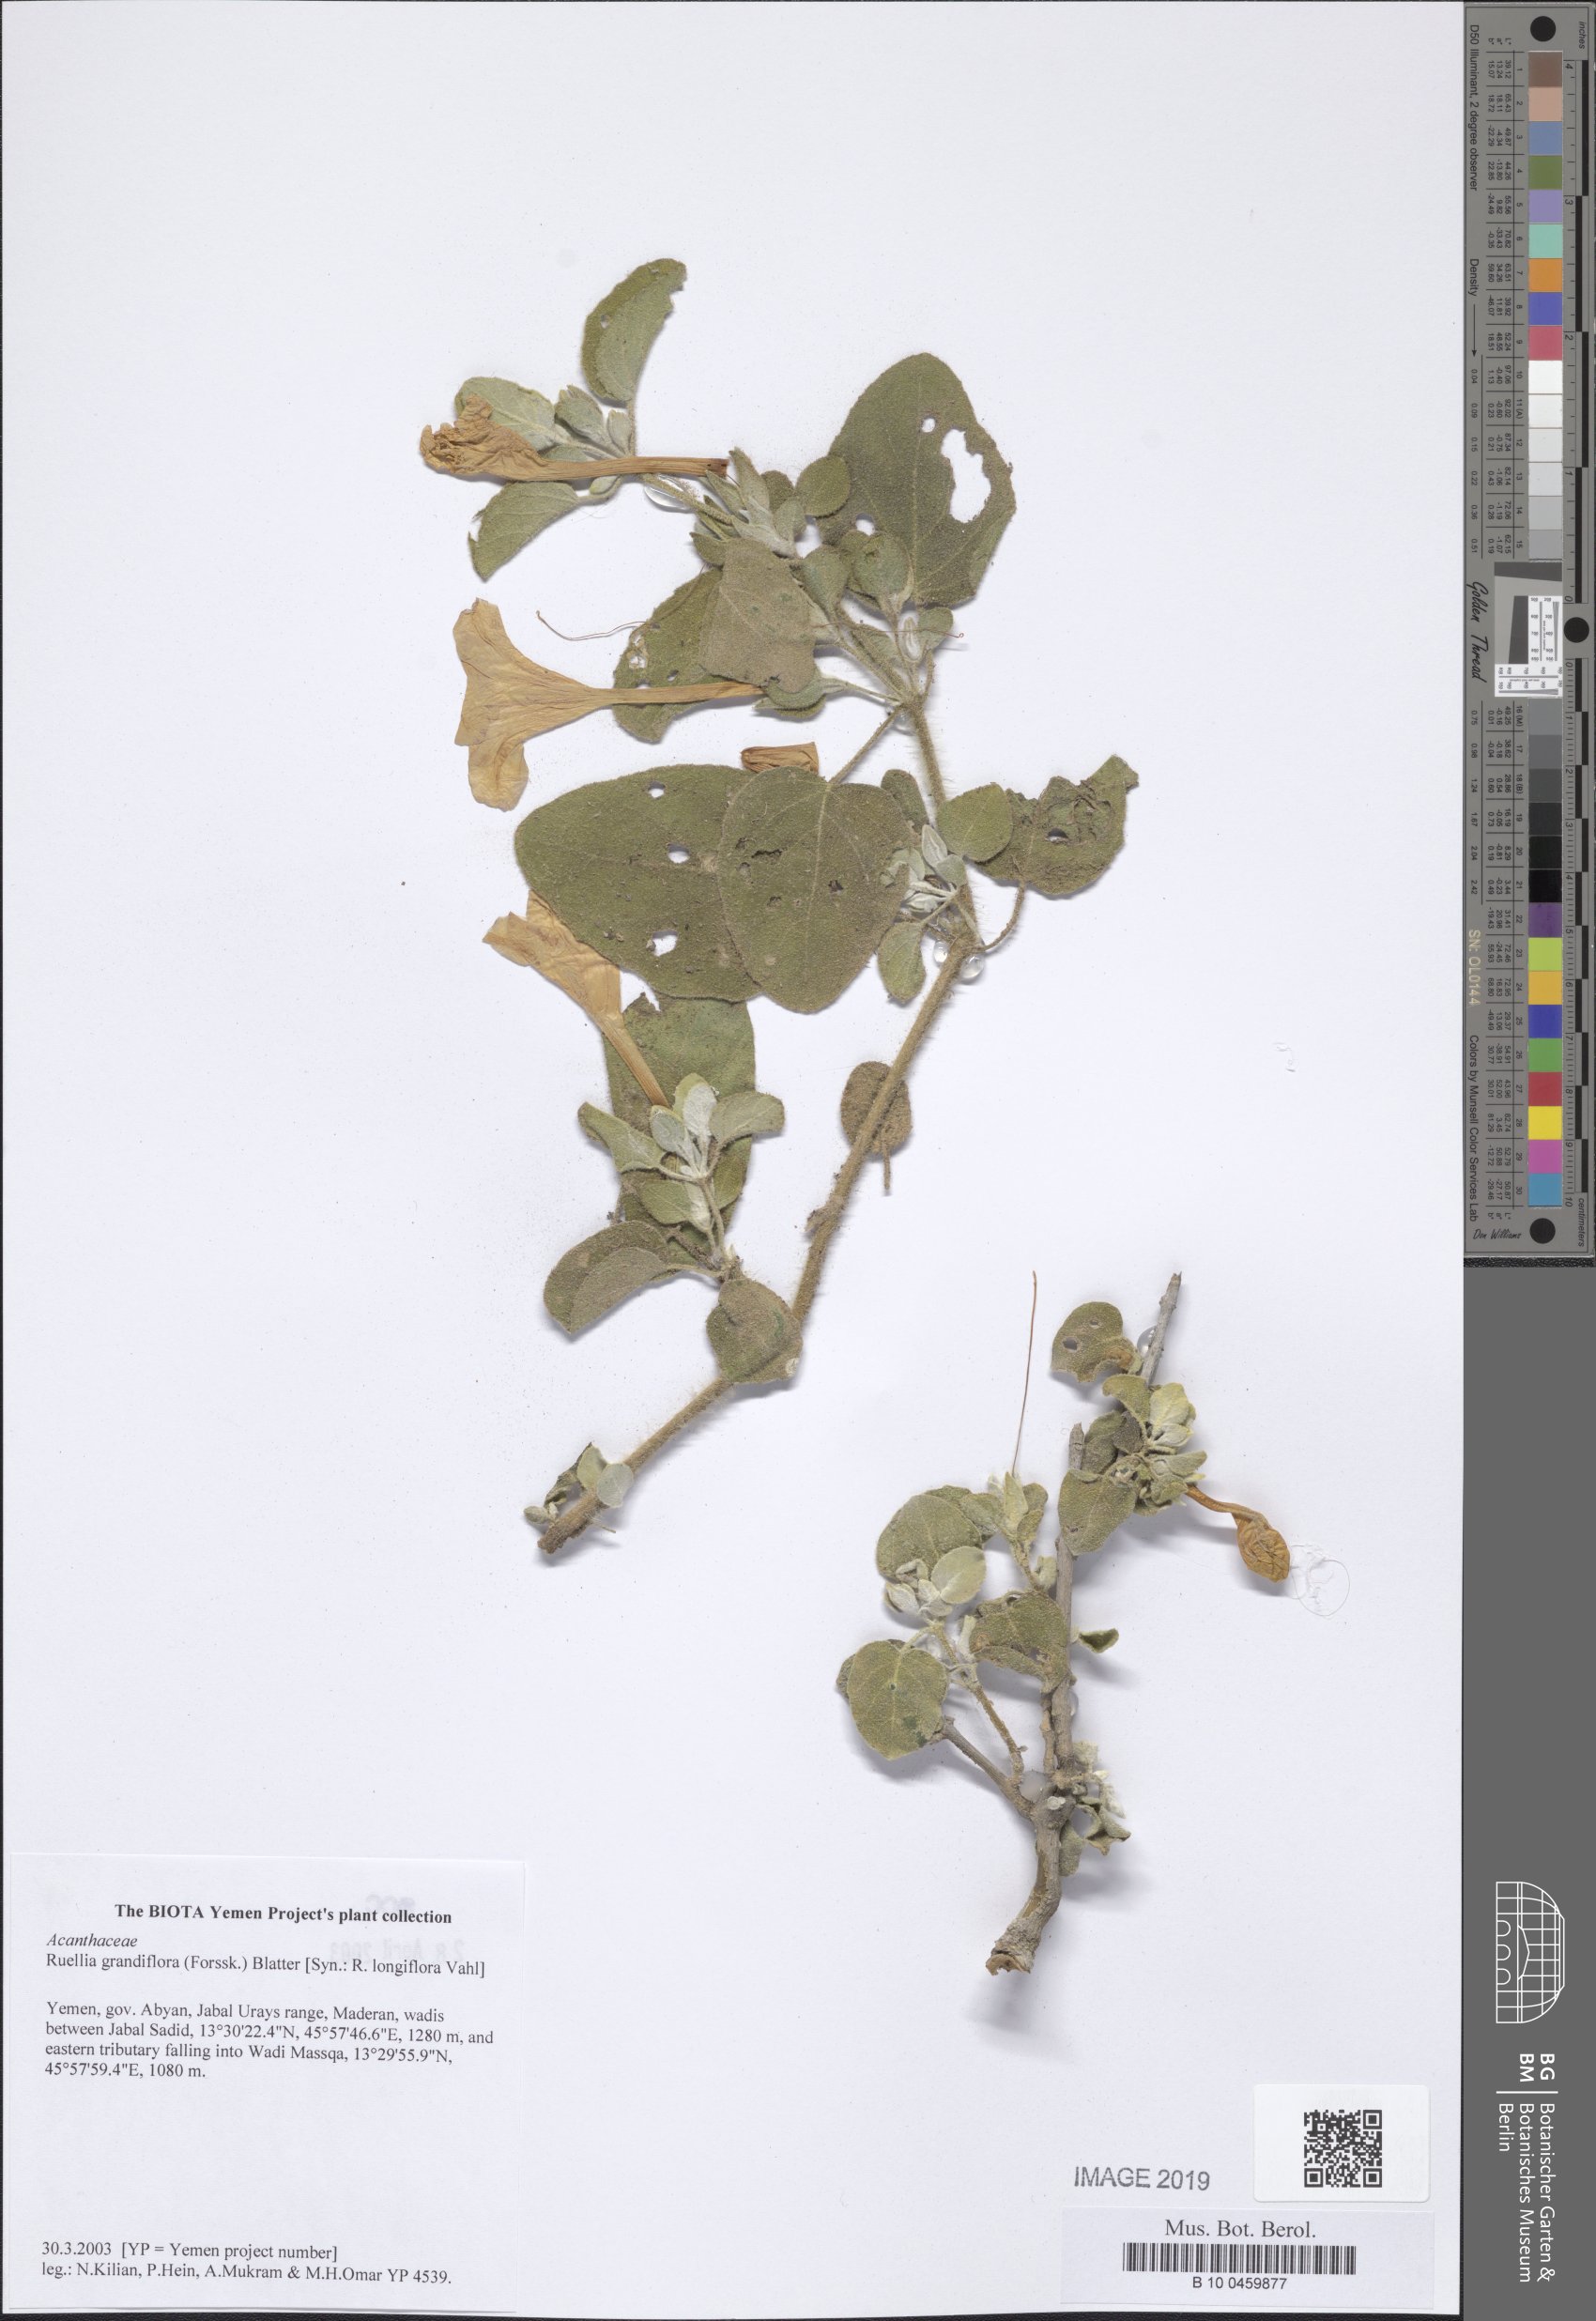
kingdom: Plantae
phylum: Tracheophyta
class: Magnoliopsida
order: Lamiales
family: Acanthaceae
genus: Ruellia
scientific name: Ruellia grandiflora
